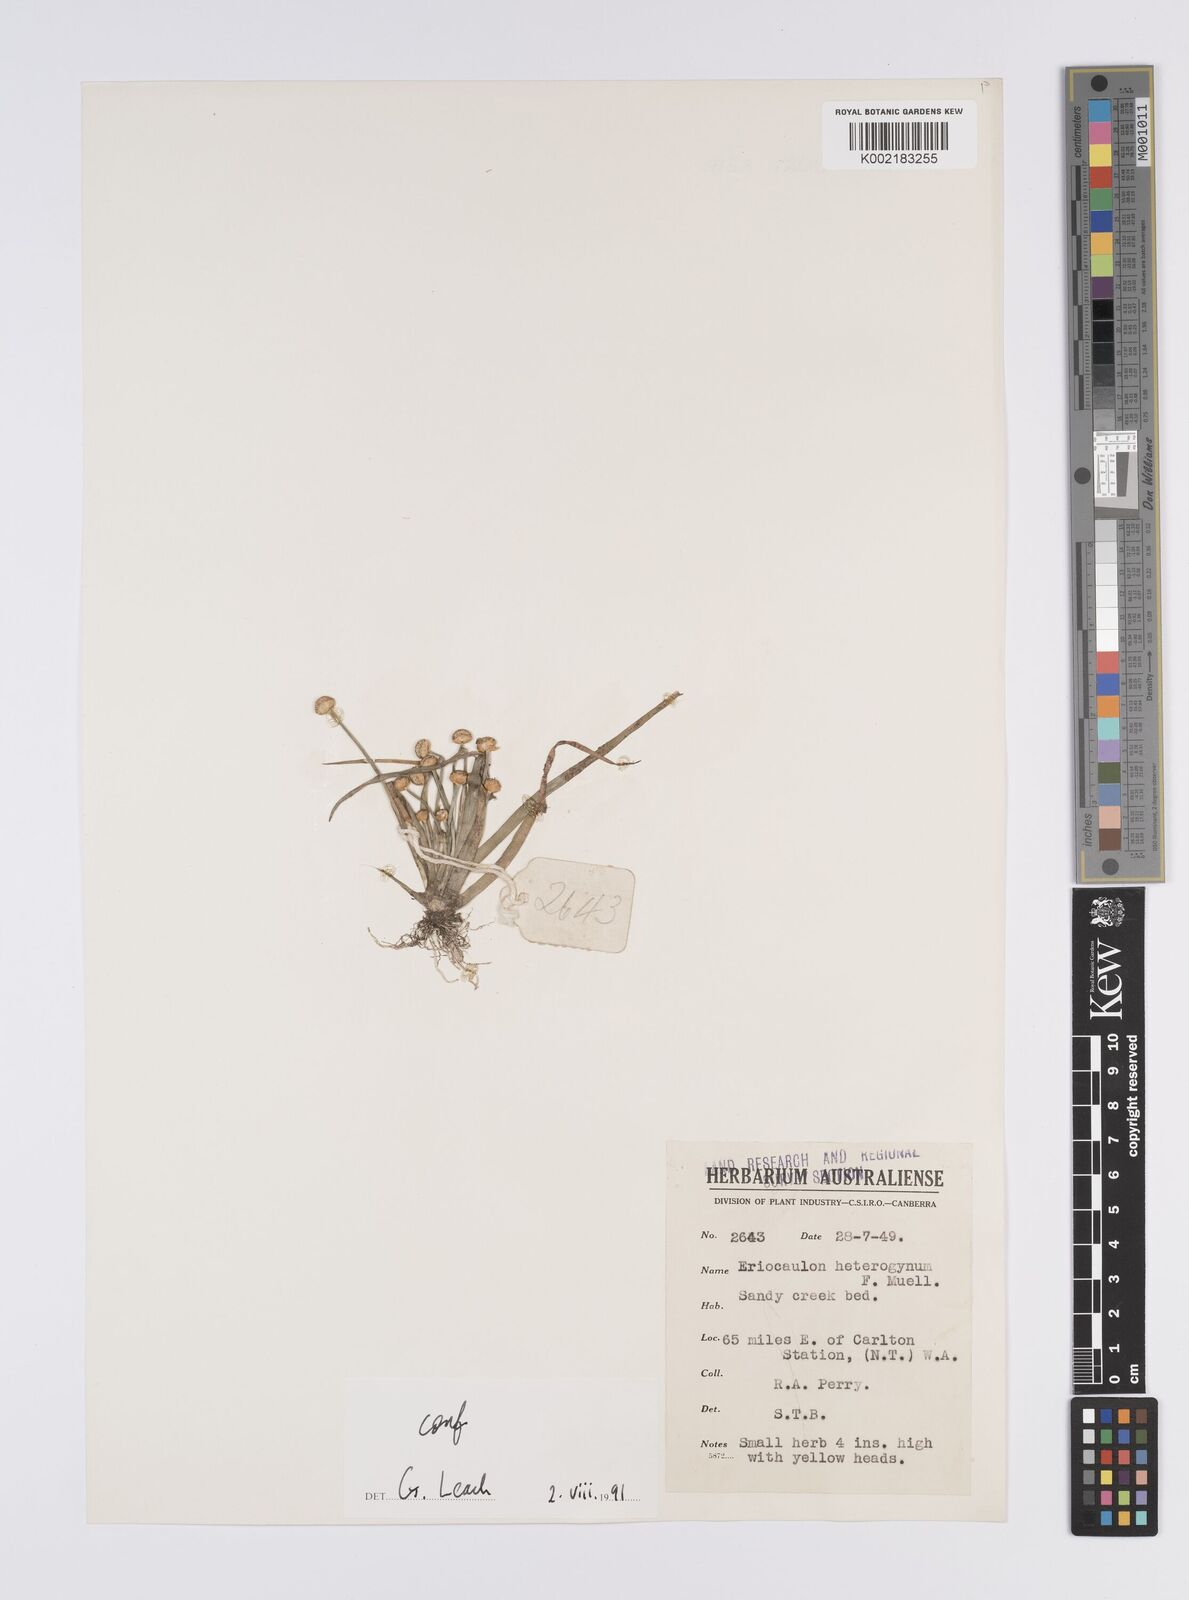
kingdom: Plantae
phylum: Tracheophyta
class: Liliopsida
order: Poales
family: Eriocaulaceae
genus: Eriocaulon
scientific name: Eriocaulon depressum
